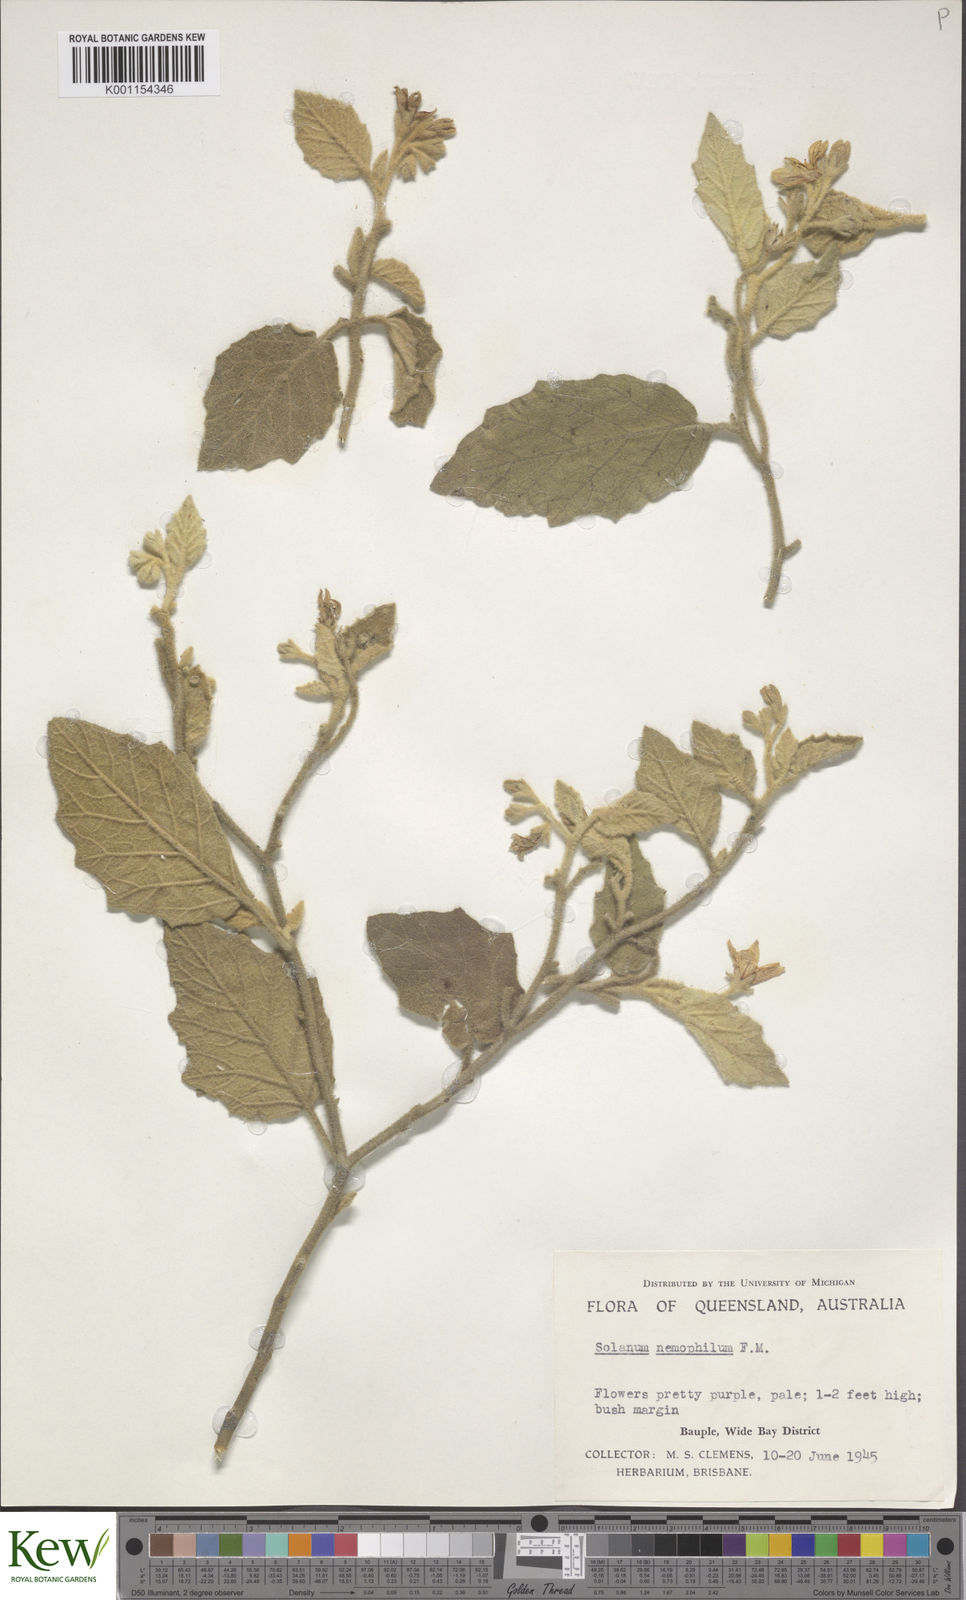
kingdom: Plantae
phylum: Tracheophyta
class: Magnoliopsida
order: Solanales
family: Solanaceae
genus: Solanum
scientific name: Solanum nemophilum
